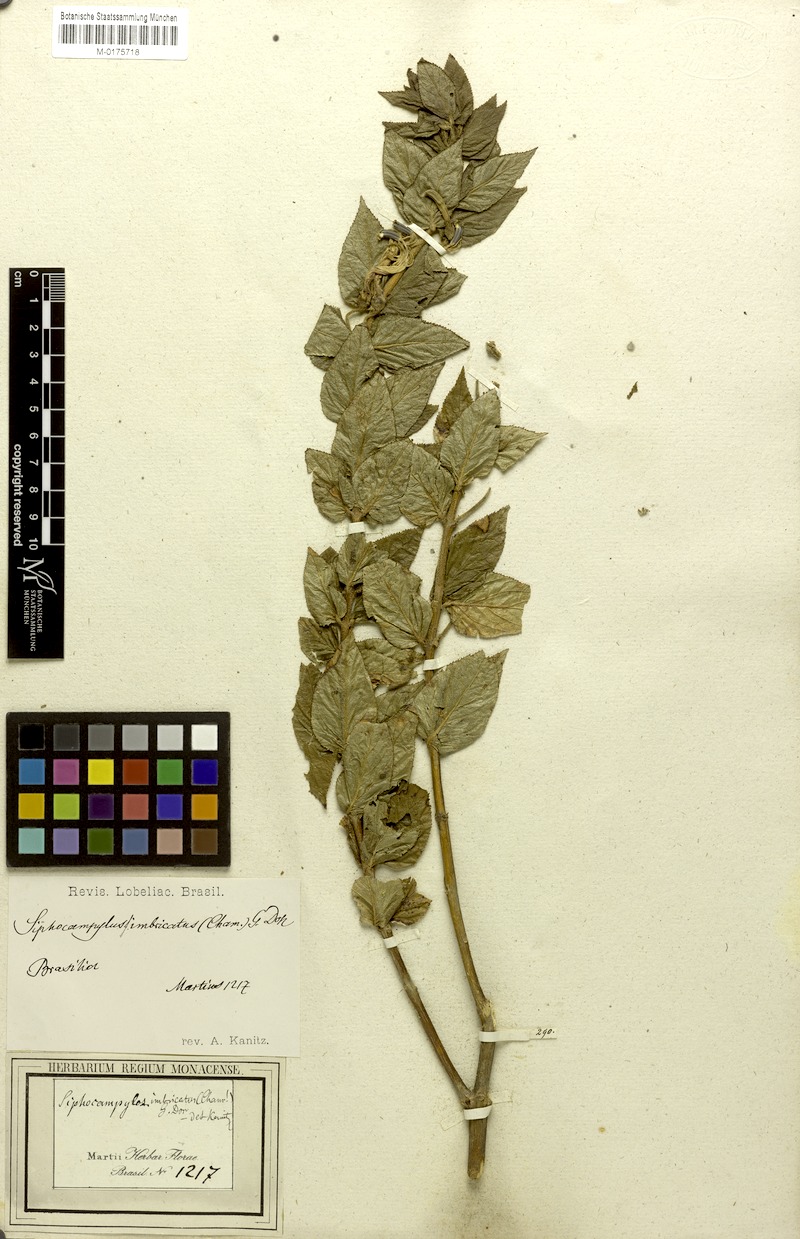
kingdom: Plantae
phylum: Tracheophyta
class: Magnoliopsida
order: Asterales
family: Campanulaceae
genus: Siphocampylus
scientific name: Siphocampylus westinianus
